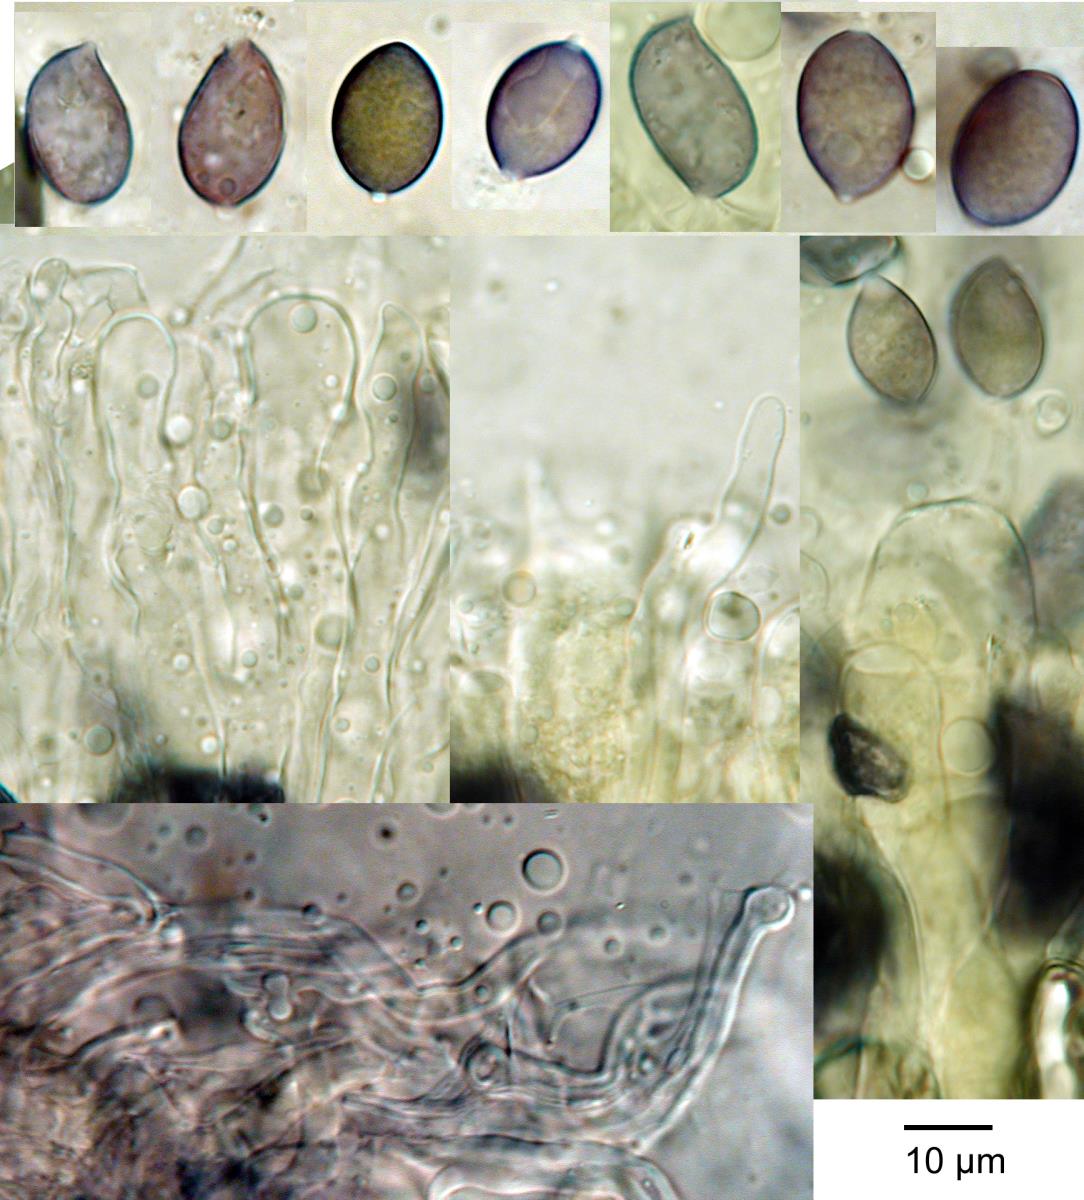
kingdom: Fungi
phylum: Basidiomycota
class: Agaricomycetes
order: Russulales
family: Stereaceae
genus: Stereodiscus
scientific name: Stereodiscus limonisporus
